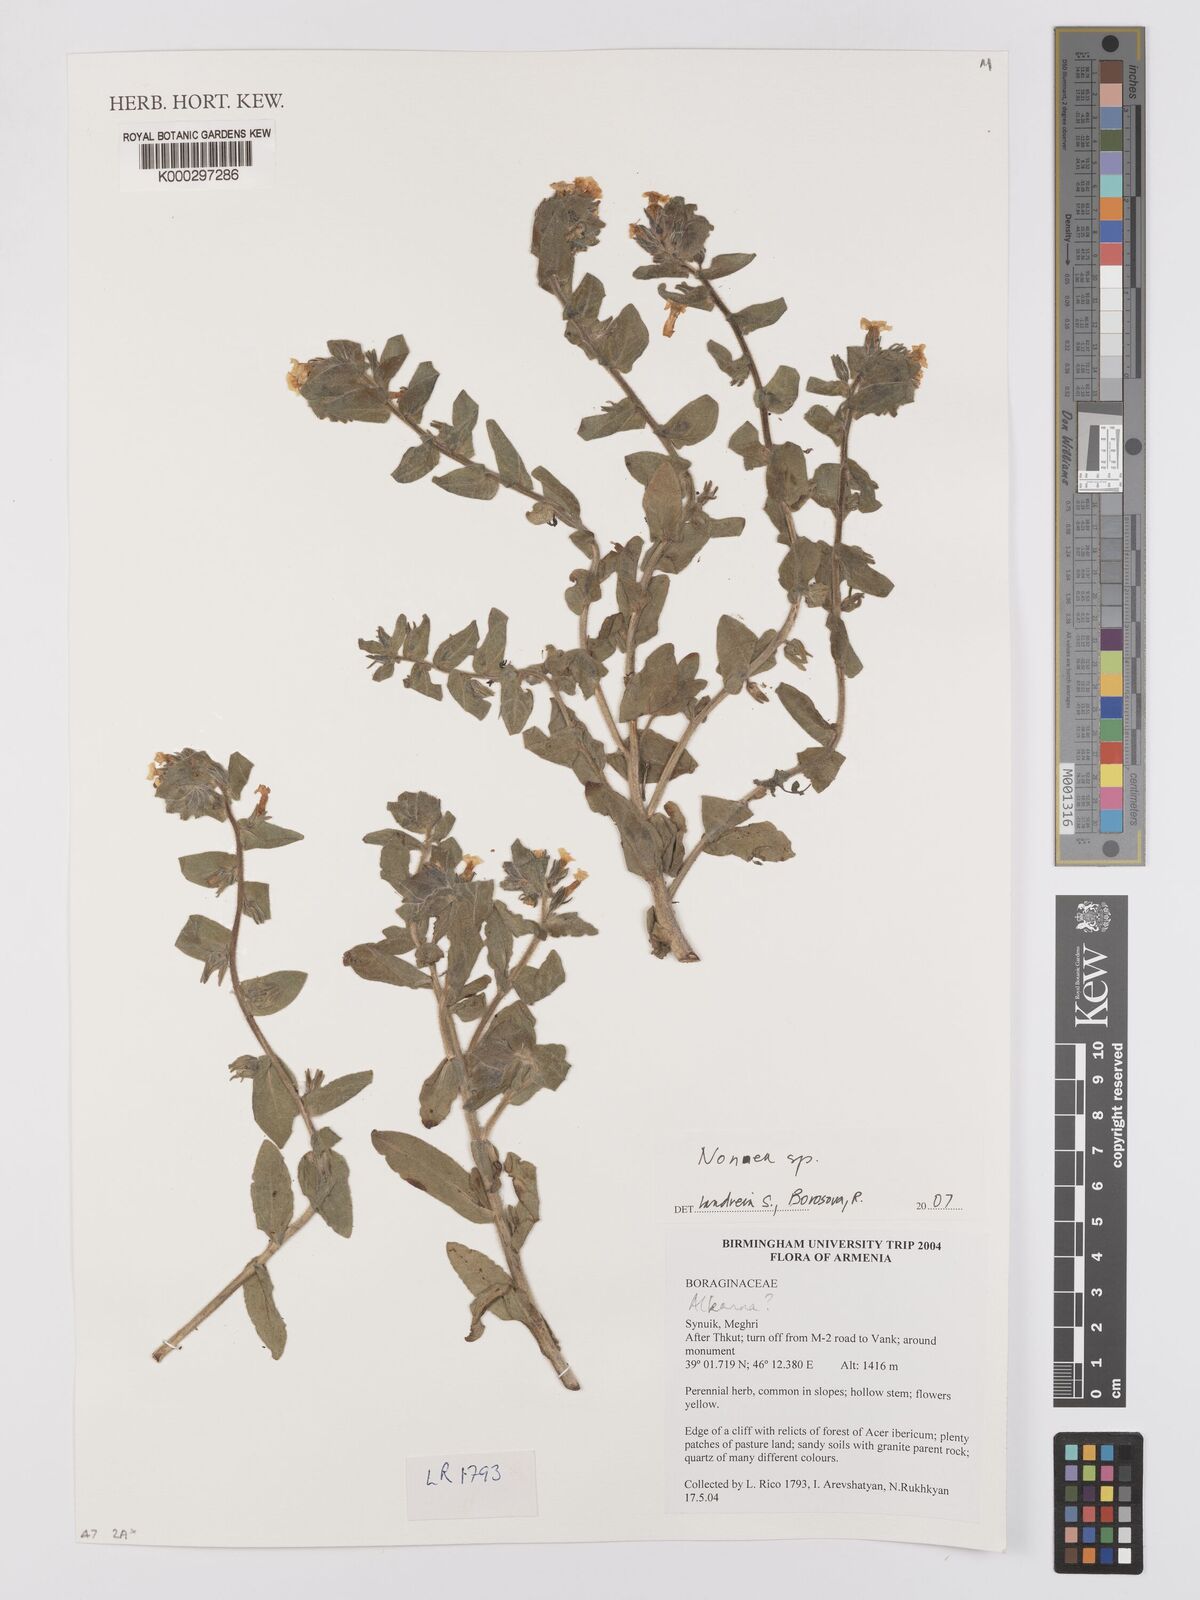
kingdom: Plantae
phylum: Tracheophyta
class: Magnoliopsida
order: Boraginales
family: Boraginaceae
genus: Alkanna
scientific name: Alkanna
